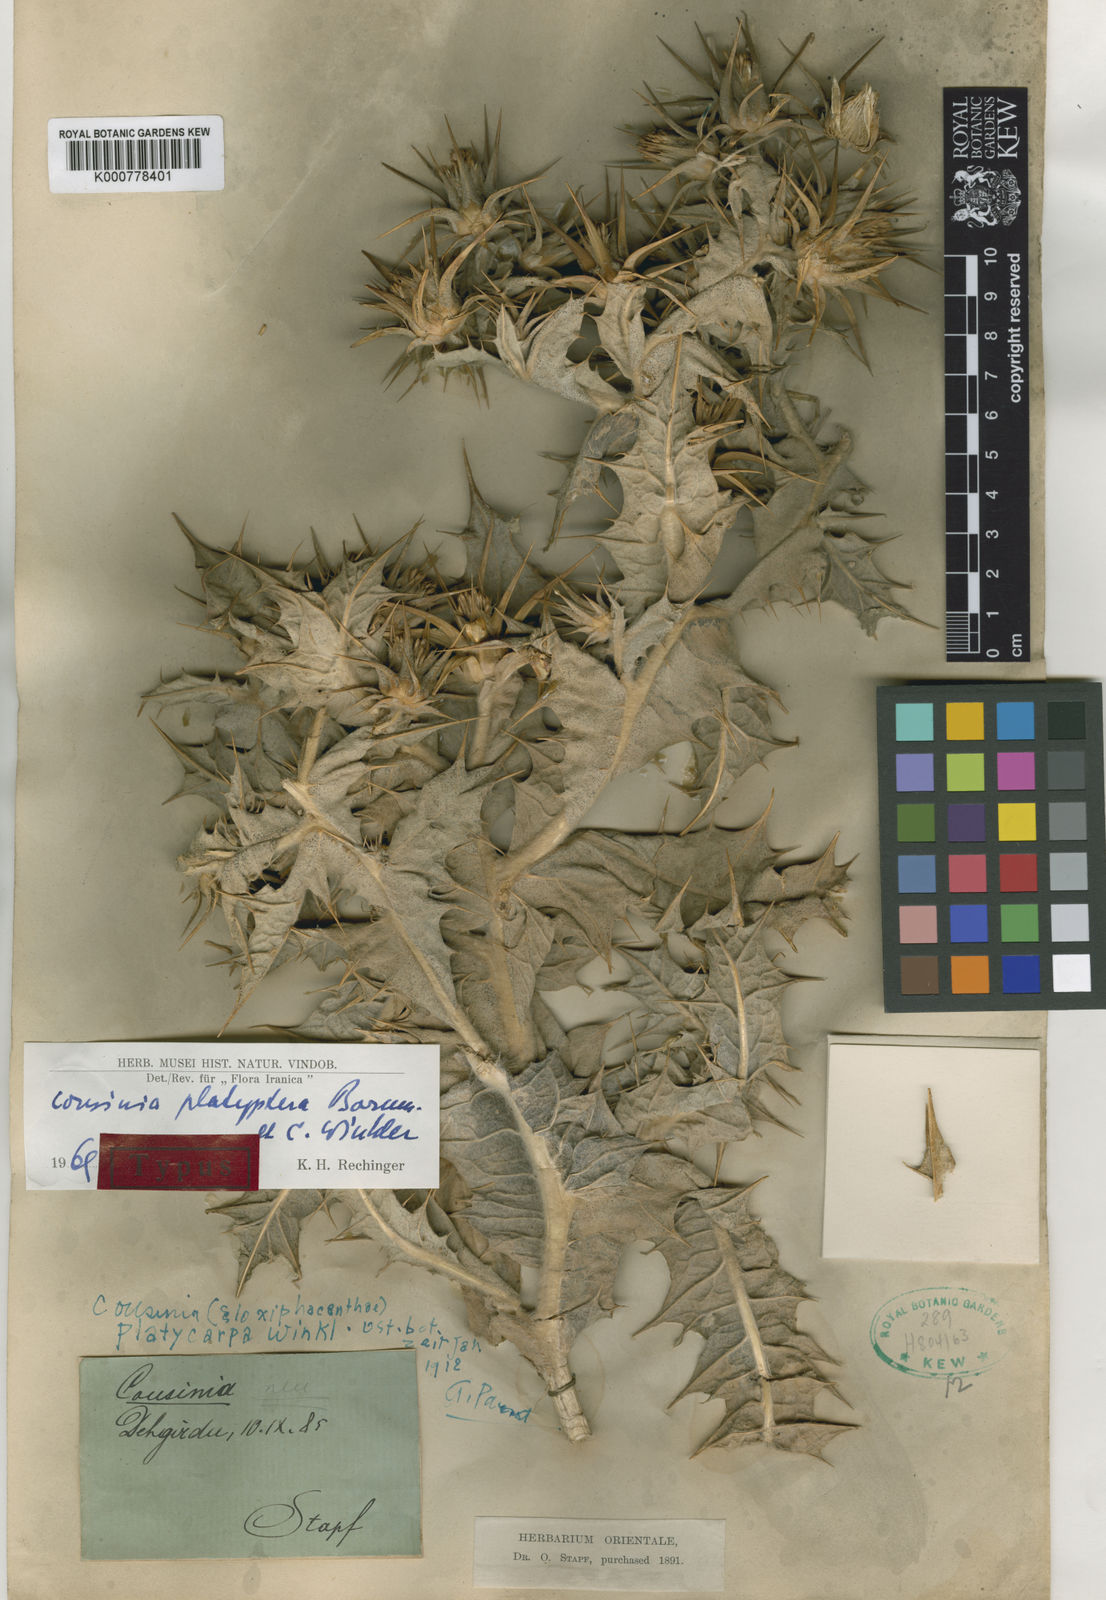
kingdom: Plantae
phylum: Tracheophyta
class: Magnoliopsida
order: Asterales
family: Asteraceae
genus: Cousinia
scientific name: Cousinia platyptera
